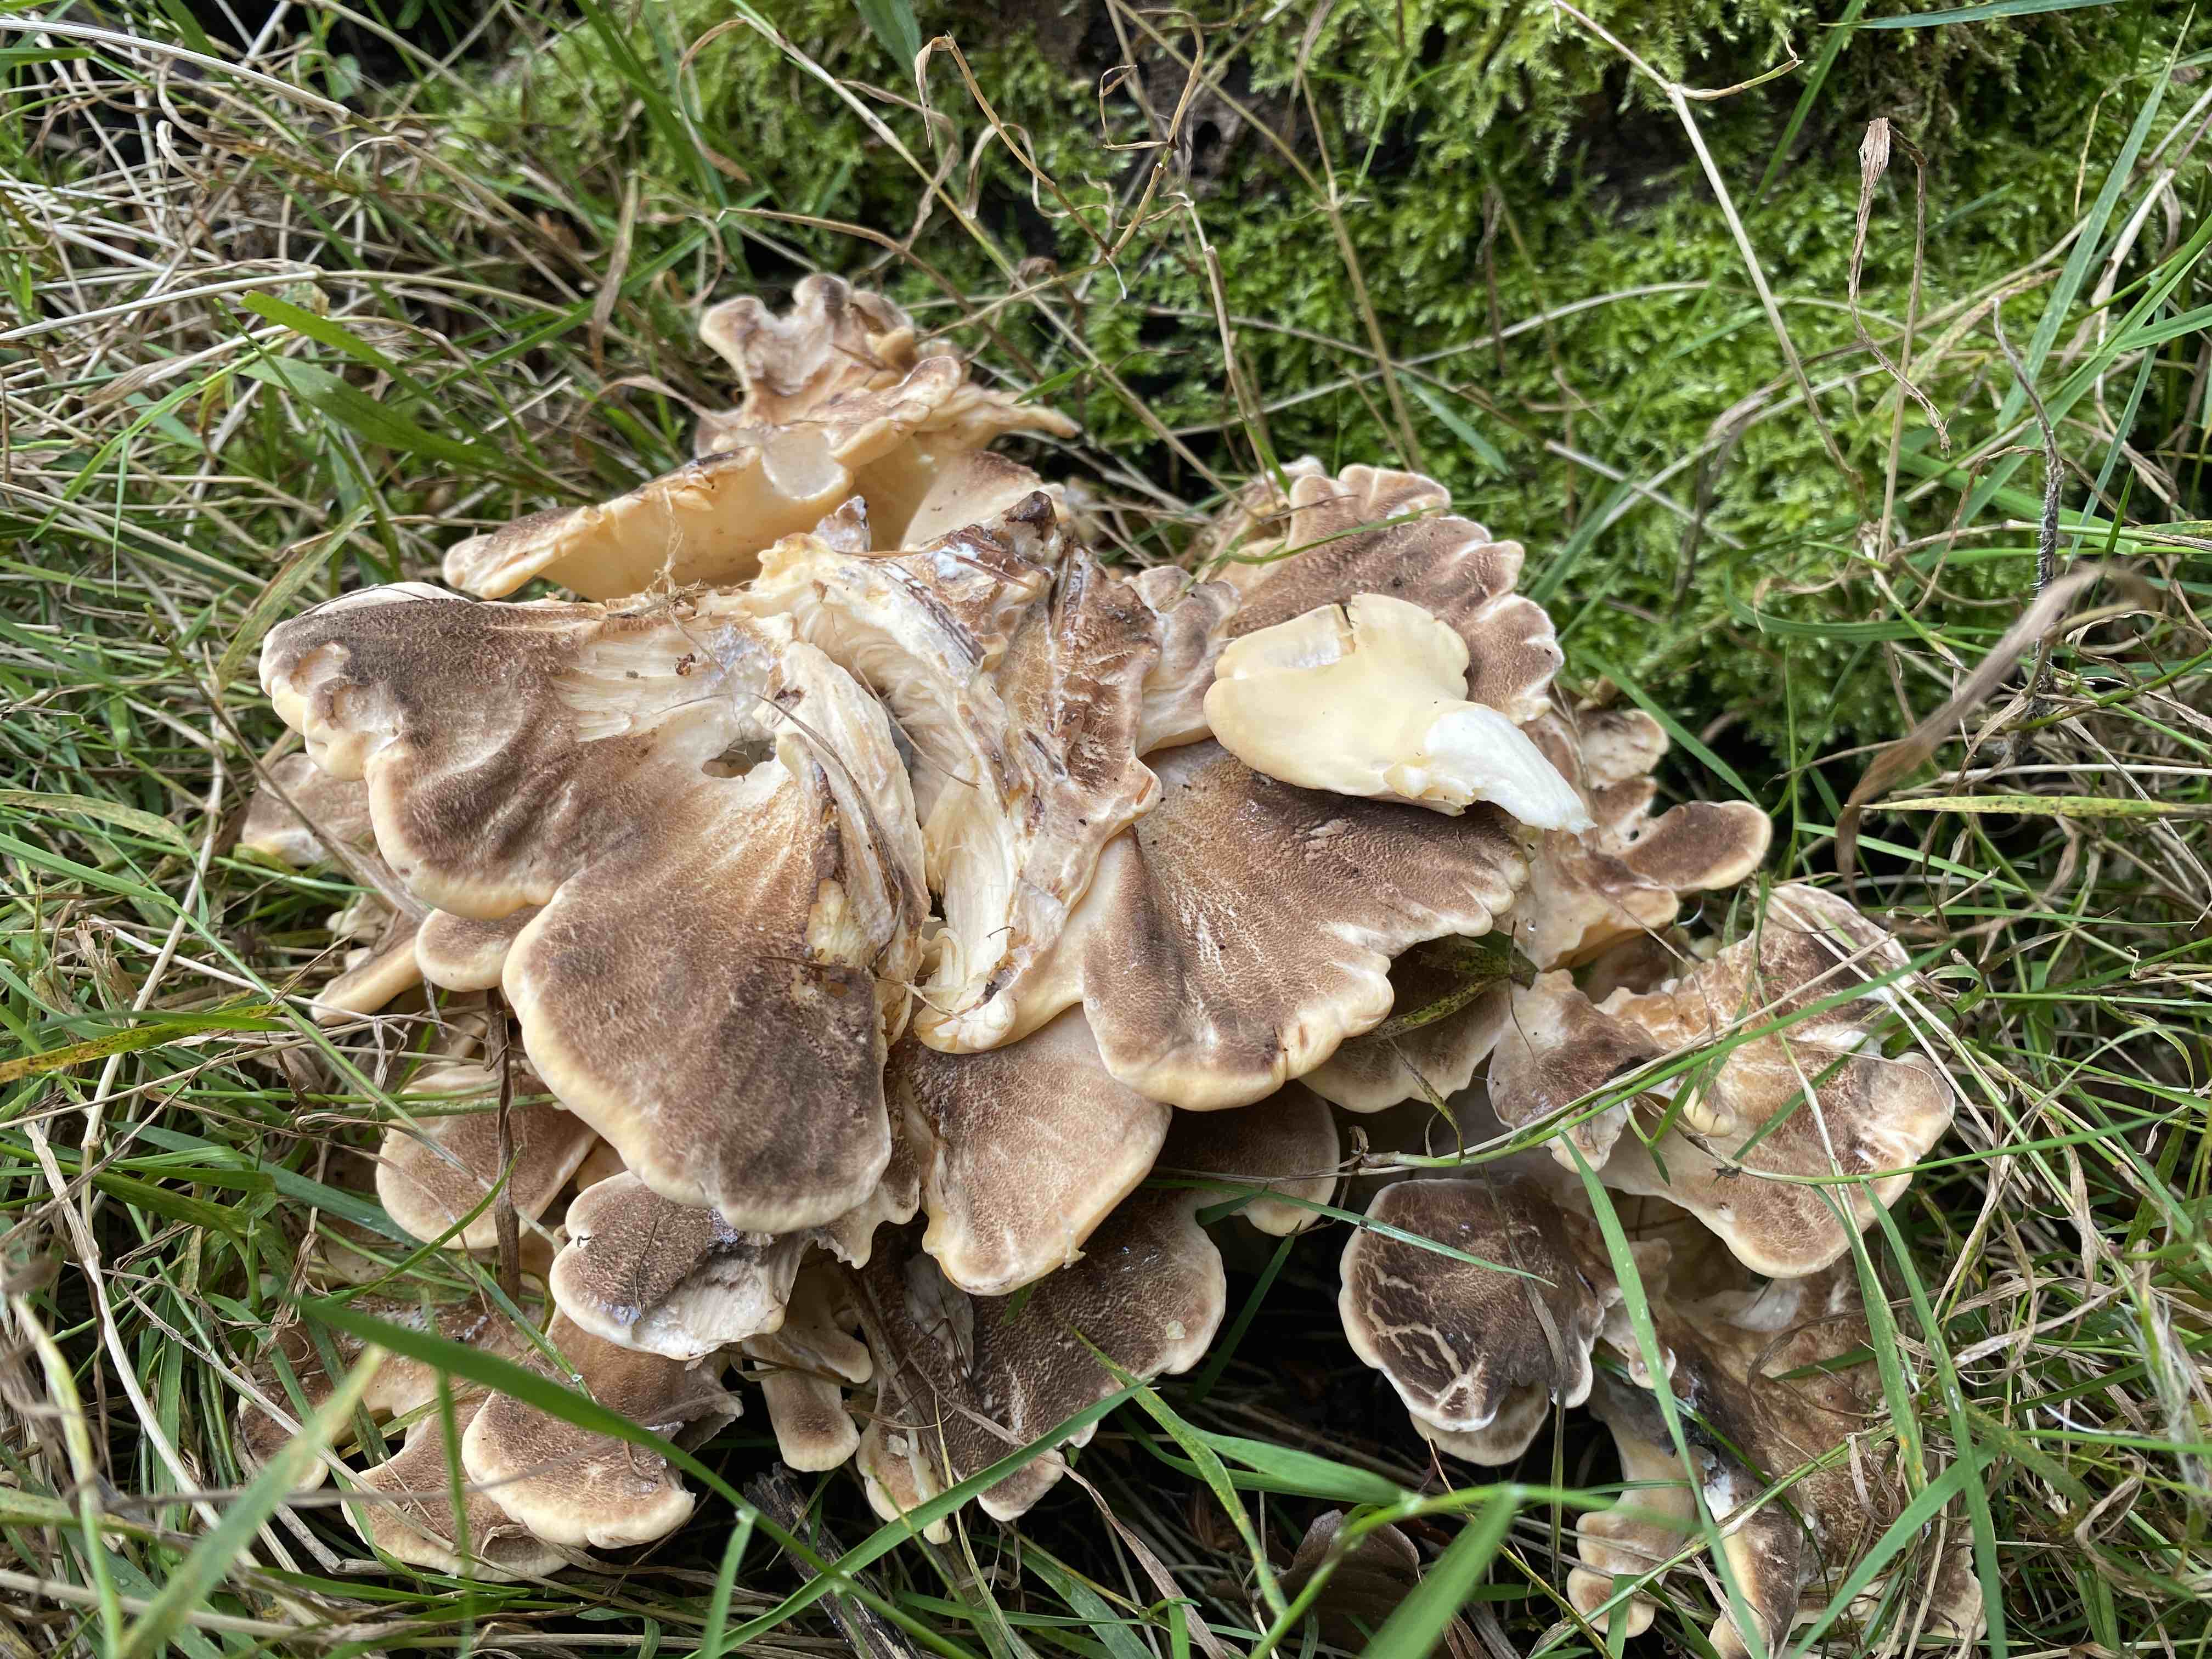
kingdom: Fungi
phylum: Basidiomycota
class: Agaricomycetes
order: Polyporales
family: Meripilaceae
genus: Meripilus
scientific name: Meripilus giganteus
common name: kæmpeporesvamp
